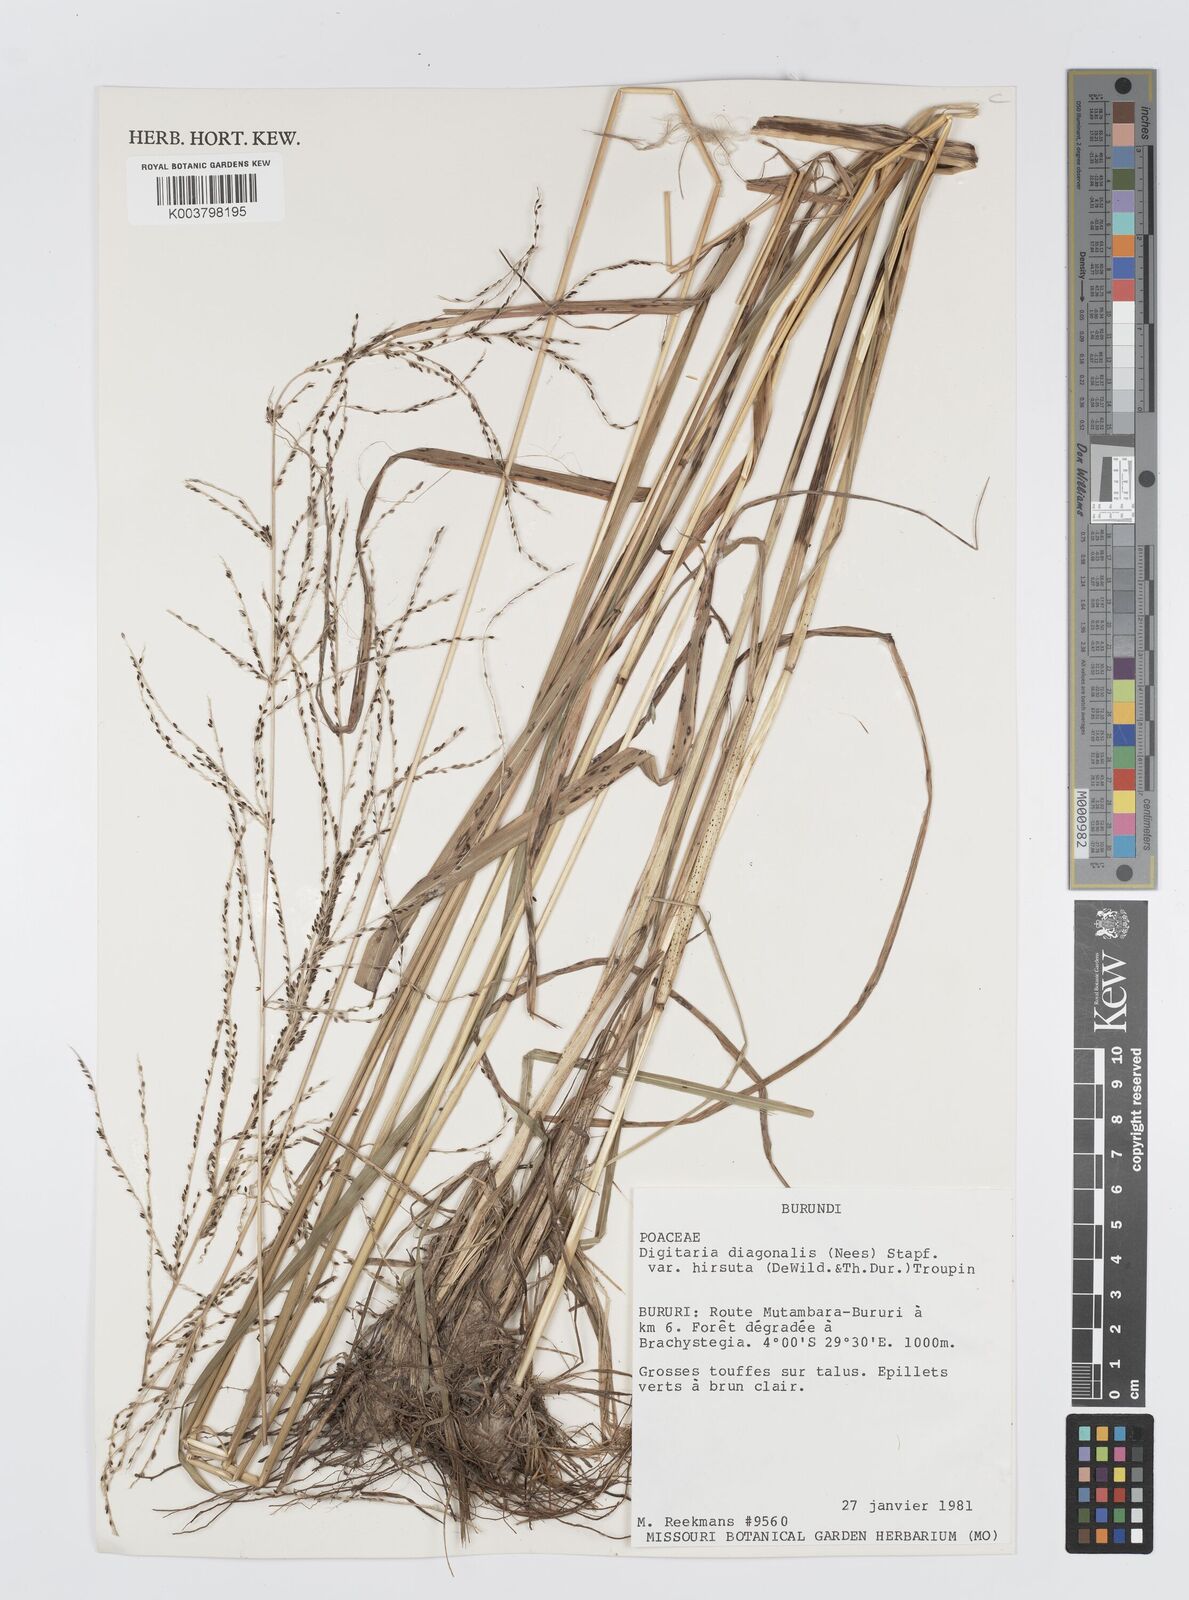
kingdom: Plantae
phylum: Tracheophyta
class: Liliopsida
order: Poales
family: Poaceae
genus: Digitaria
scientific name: Digitaria diagonalis
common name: Brown-seed finger grass
